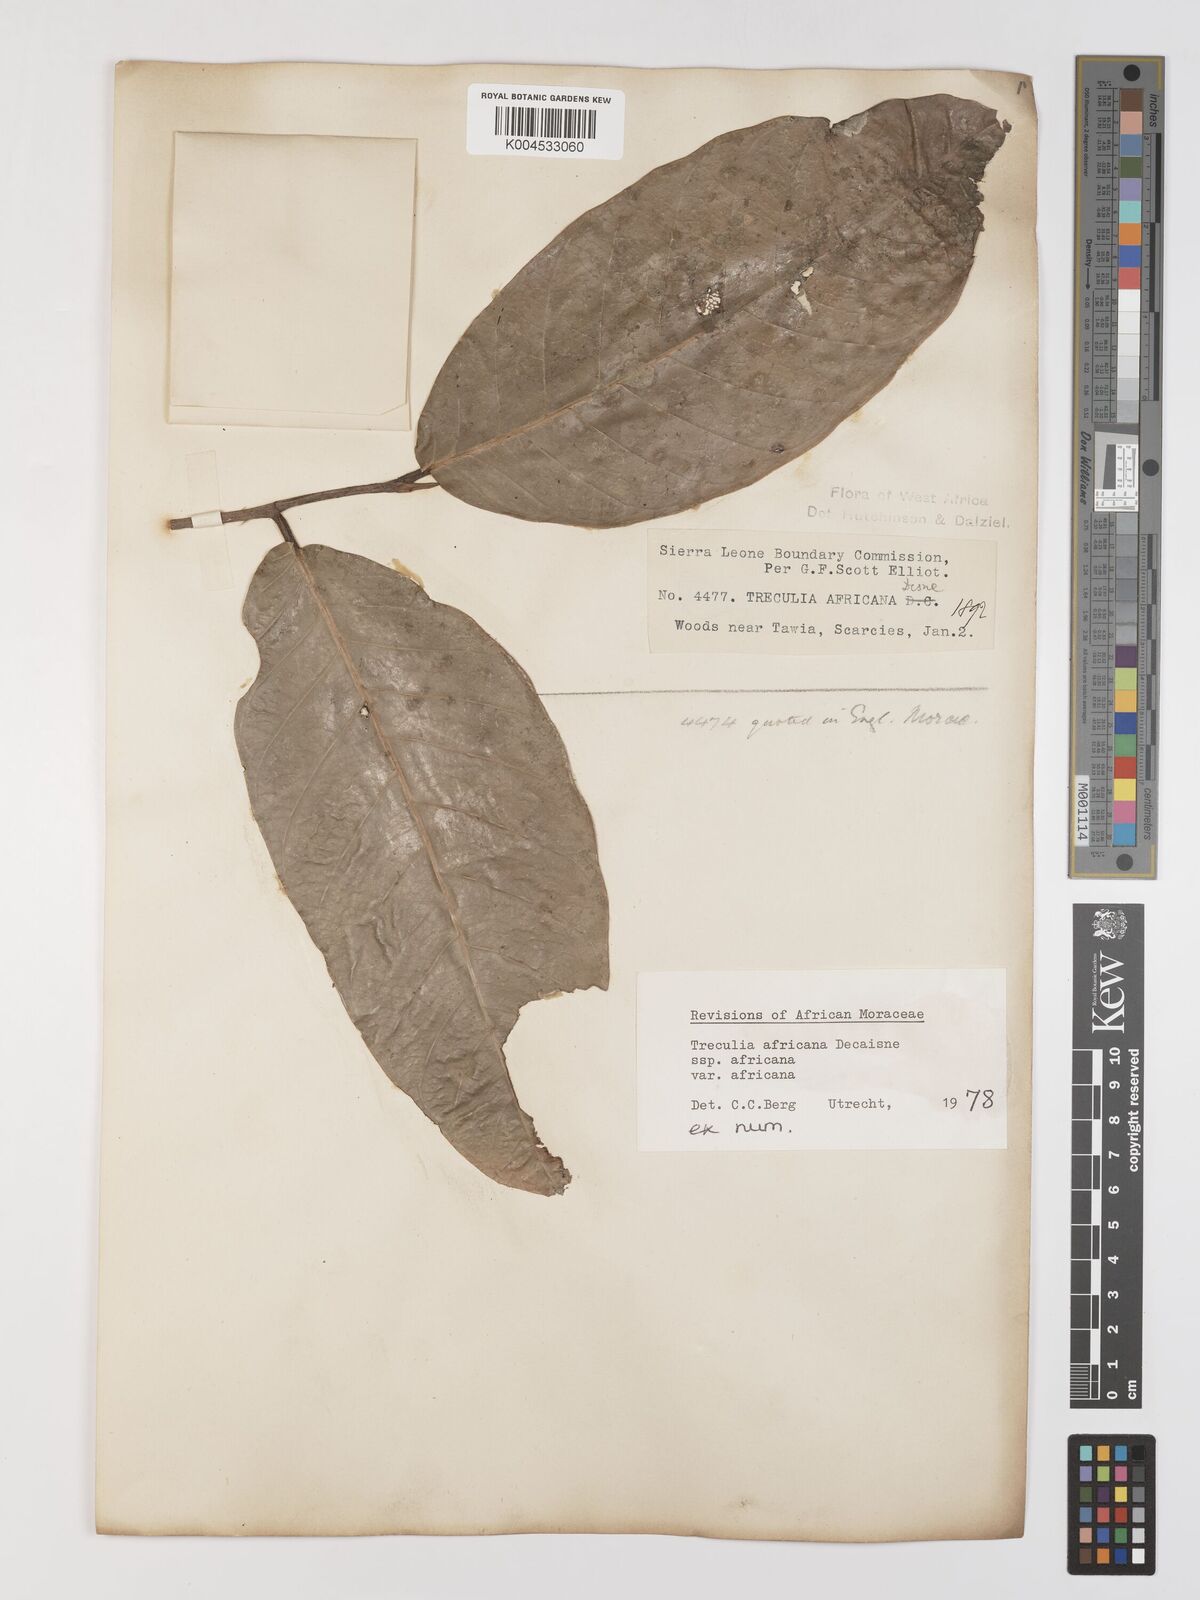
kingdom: Plantae
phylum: Tracheophyta
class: Magnoliopsida
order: Rosales
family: Moraceae
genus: Treculia
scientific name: Treculia africana
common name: African breadfruit
